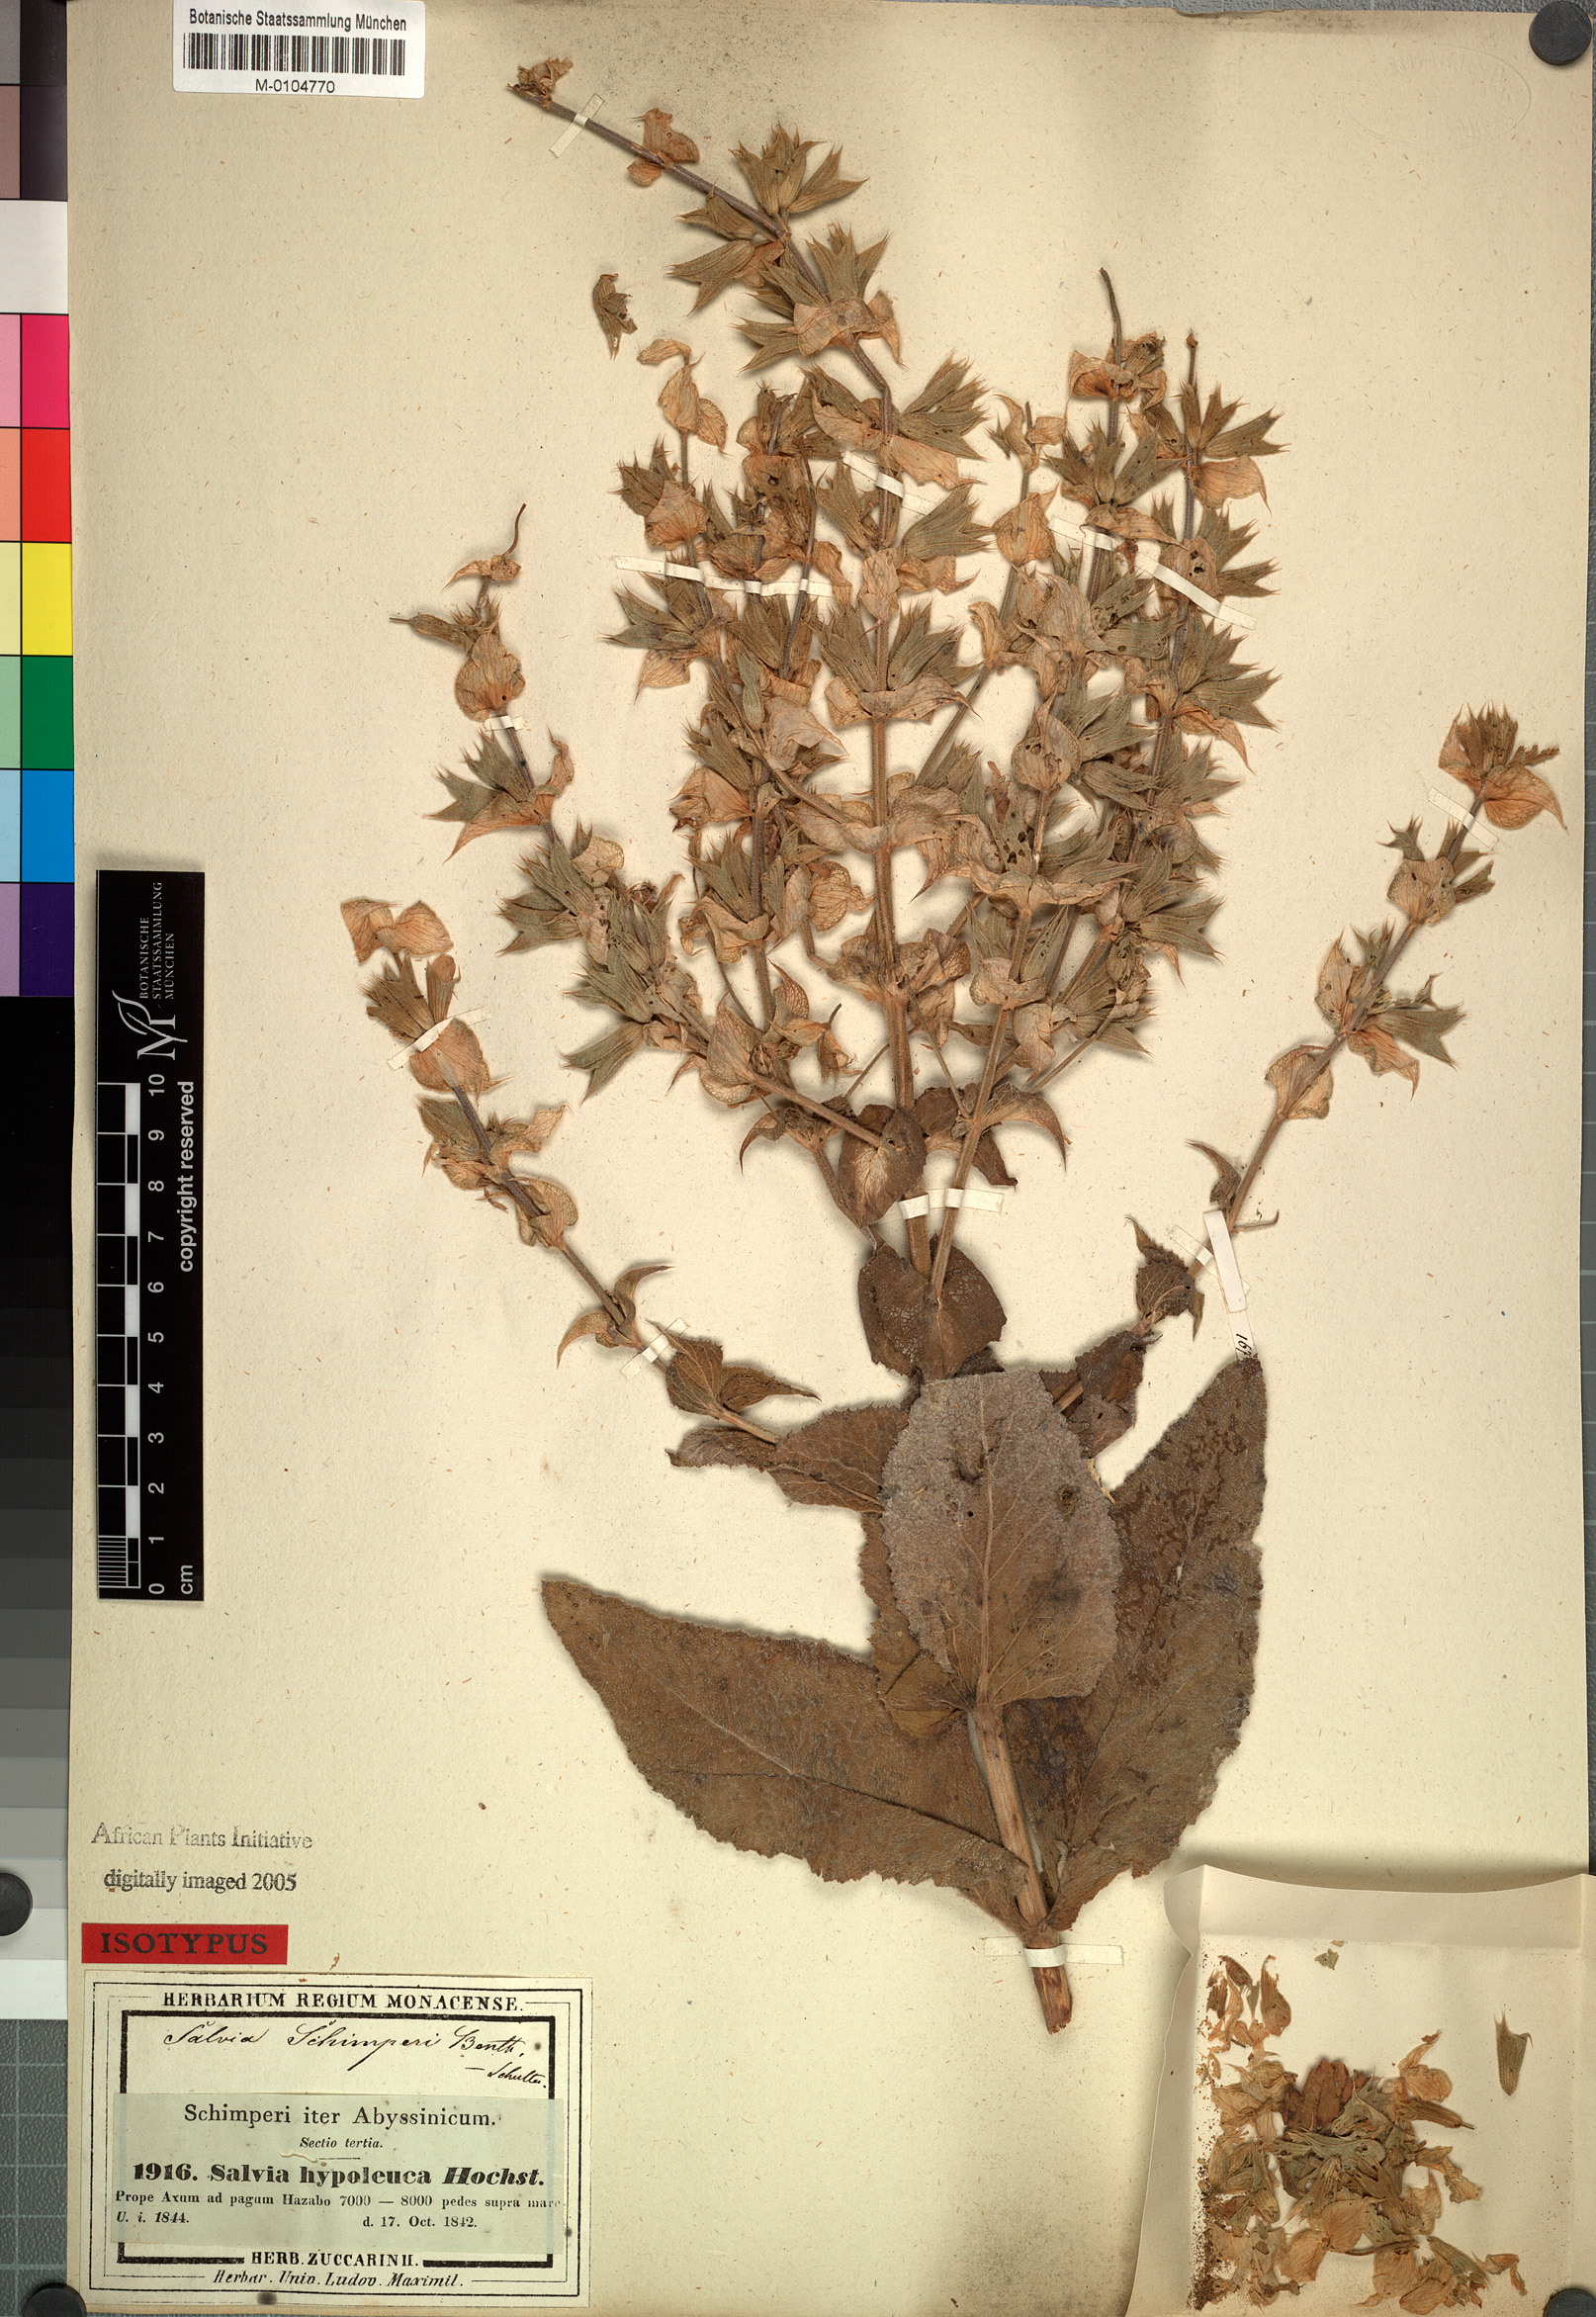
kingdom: Plantae
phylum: Tracheophyta
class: Magnoliopsida
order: Lamiales
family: Lamiaceae
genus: Salvia
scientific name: Salvia schimperi
